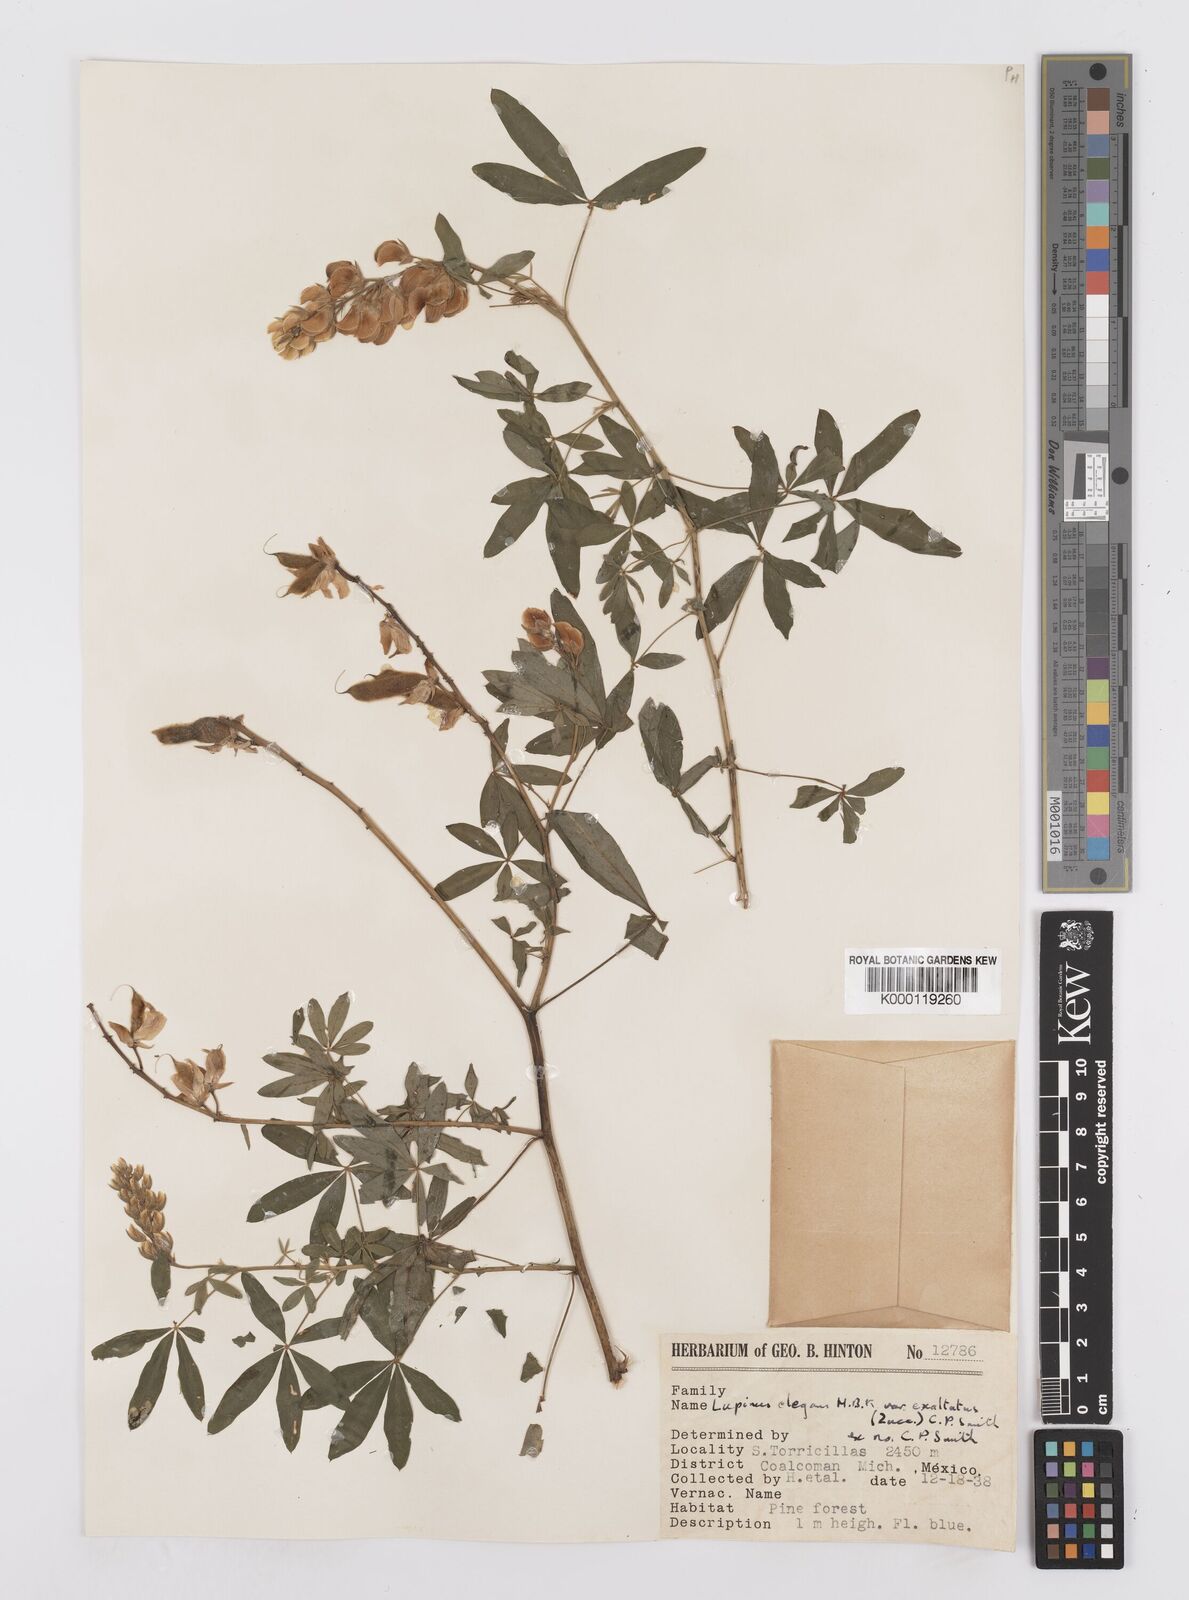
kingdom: Plantae
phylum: Tracheophyta
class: Magnoliopsida
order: Fabales
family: Fabaceae
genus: Lupinus
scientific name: Lupinus elegans
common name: Mexican lupine
